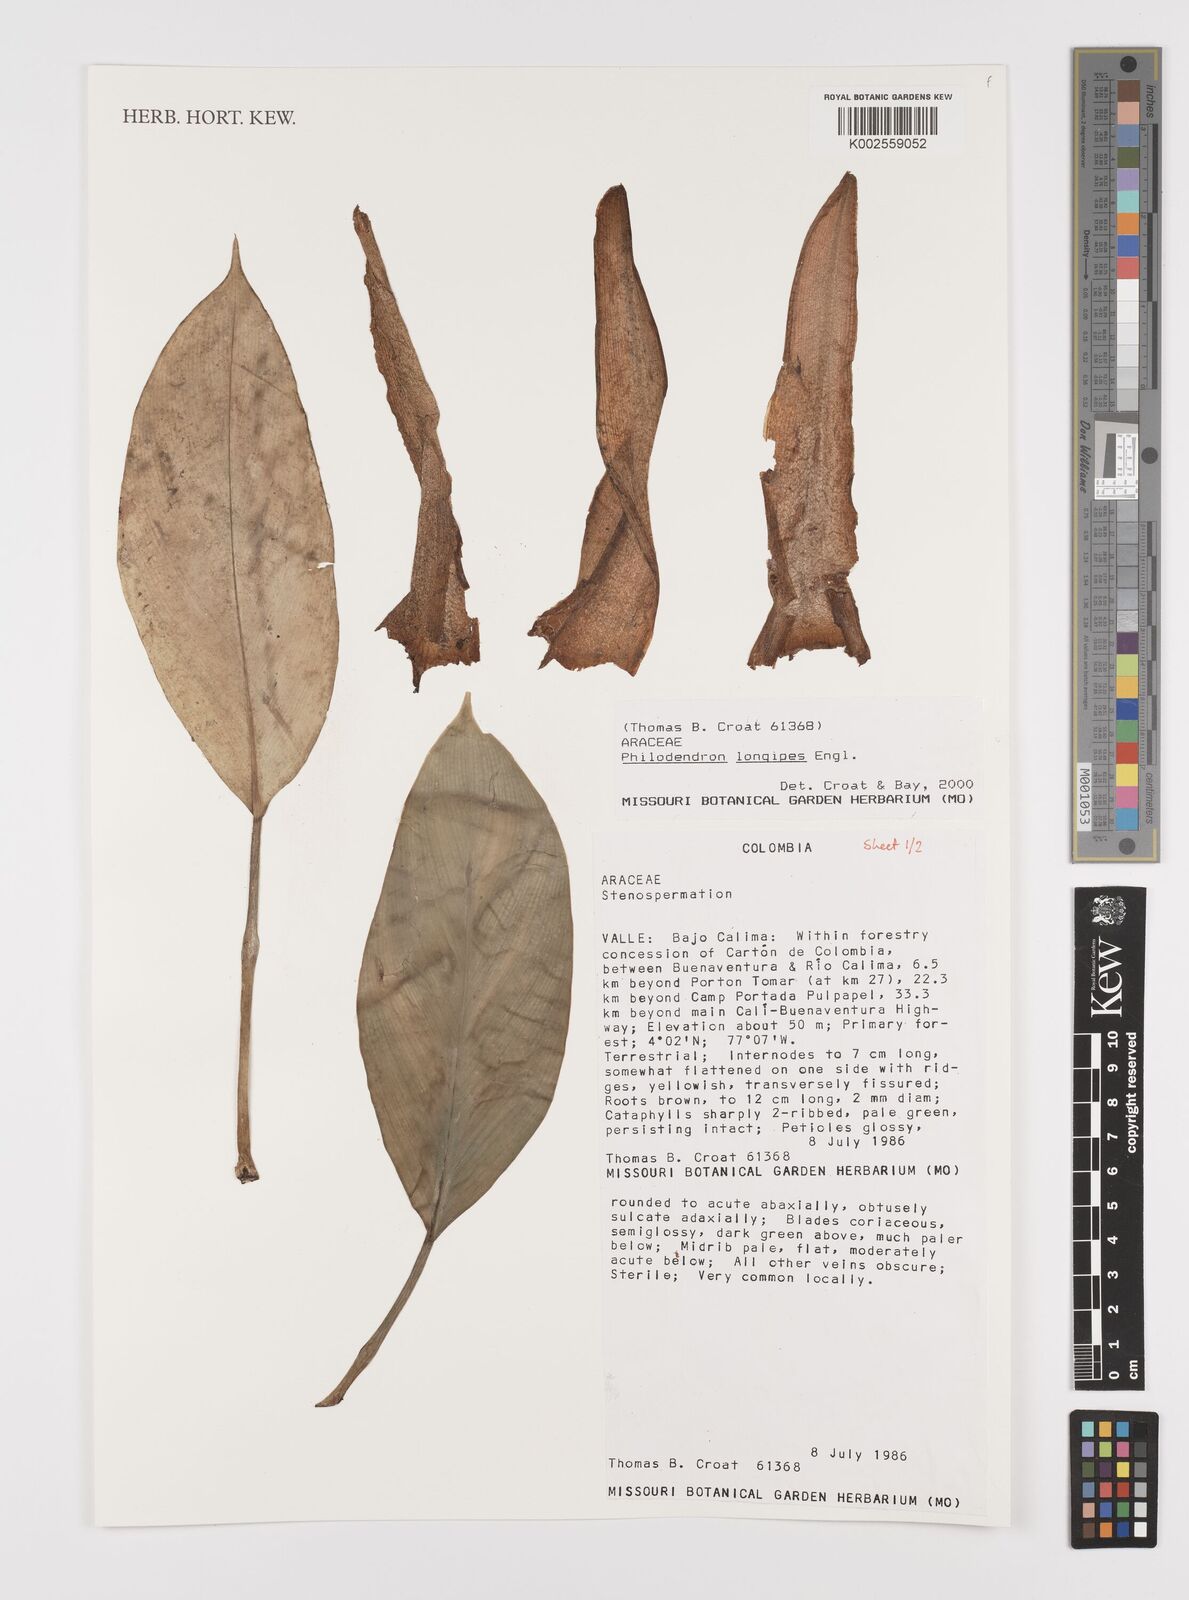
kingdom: Plantae
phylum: Tracheophyta
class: Liliopsida
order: Alismatales
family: Araceae
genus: Philodendron
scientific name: Philodendron longipes
